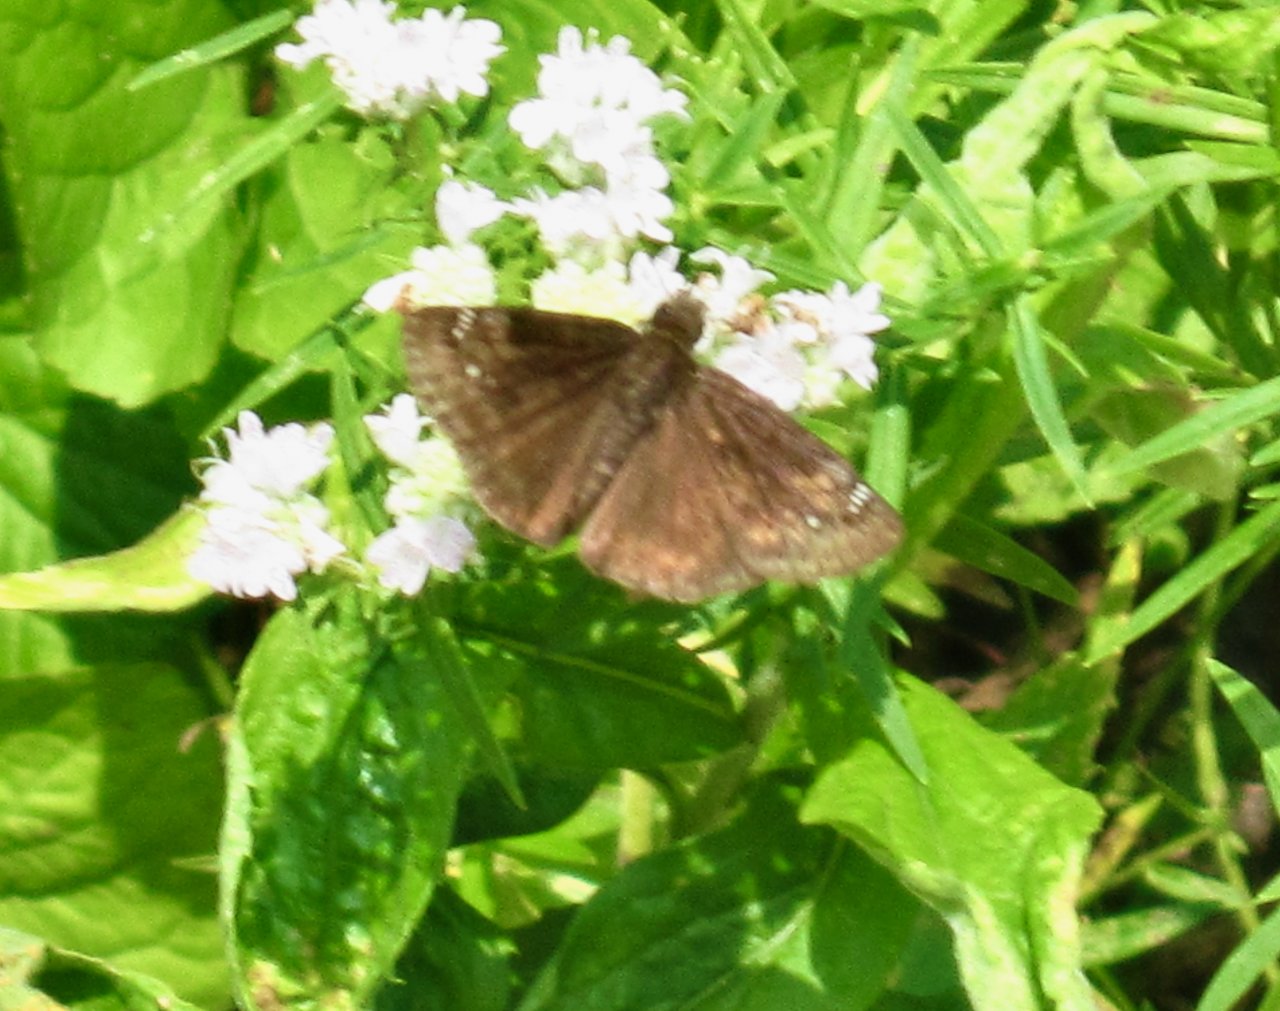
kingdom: Animalia
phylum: Arthropoda
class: Insecta
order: Lepidoptera
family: Hesperiidae
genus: Gesta
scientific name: Gesta
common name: Wild Indigo Duskywing
